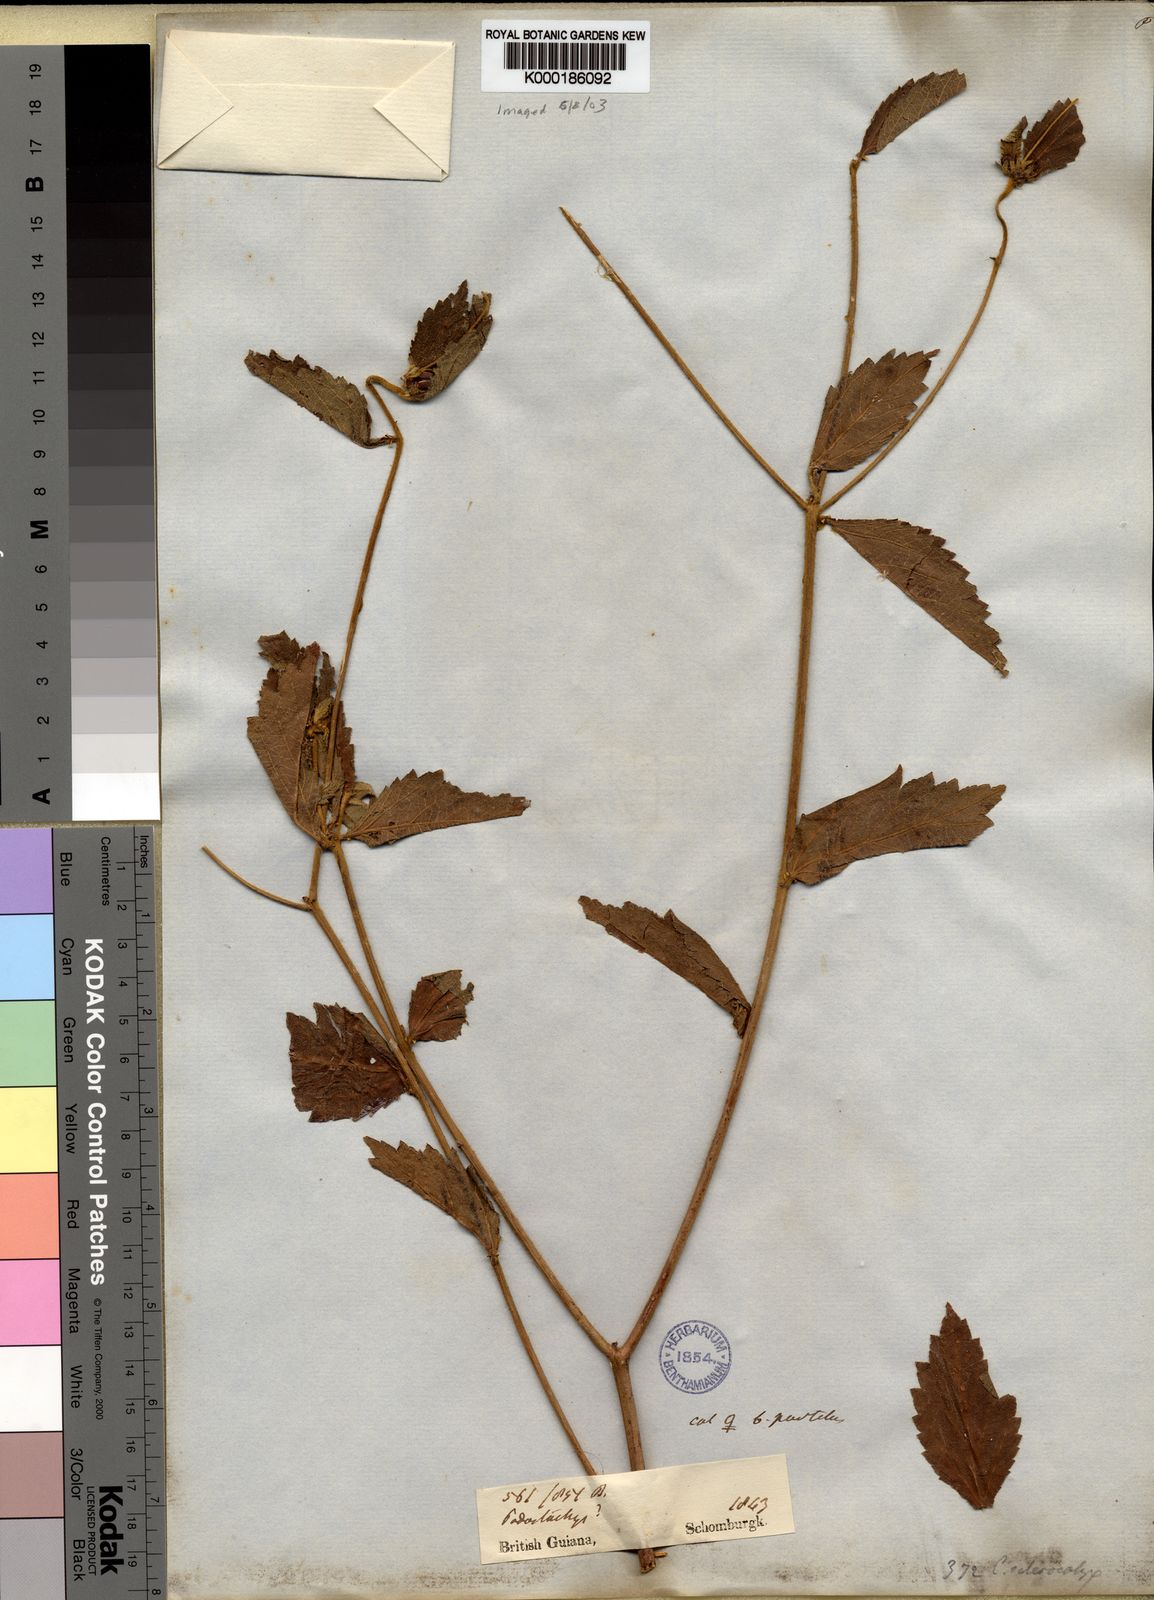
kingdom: Plantae
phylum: Tracheophyta
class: Magnoliopsida
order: Malpighiales
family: Euphorbiaceae
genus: Croton
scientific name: Croton
